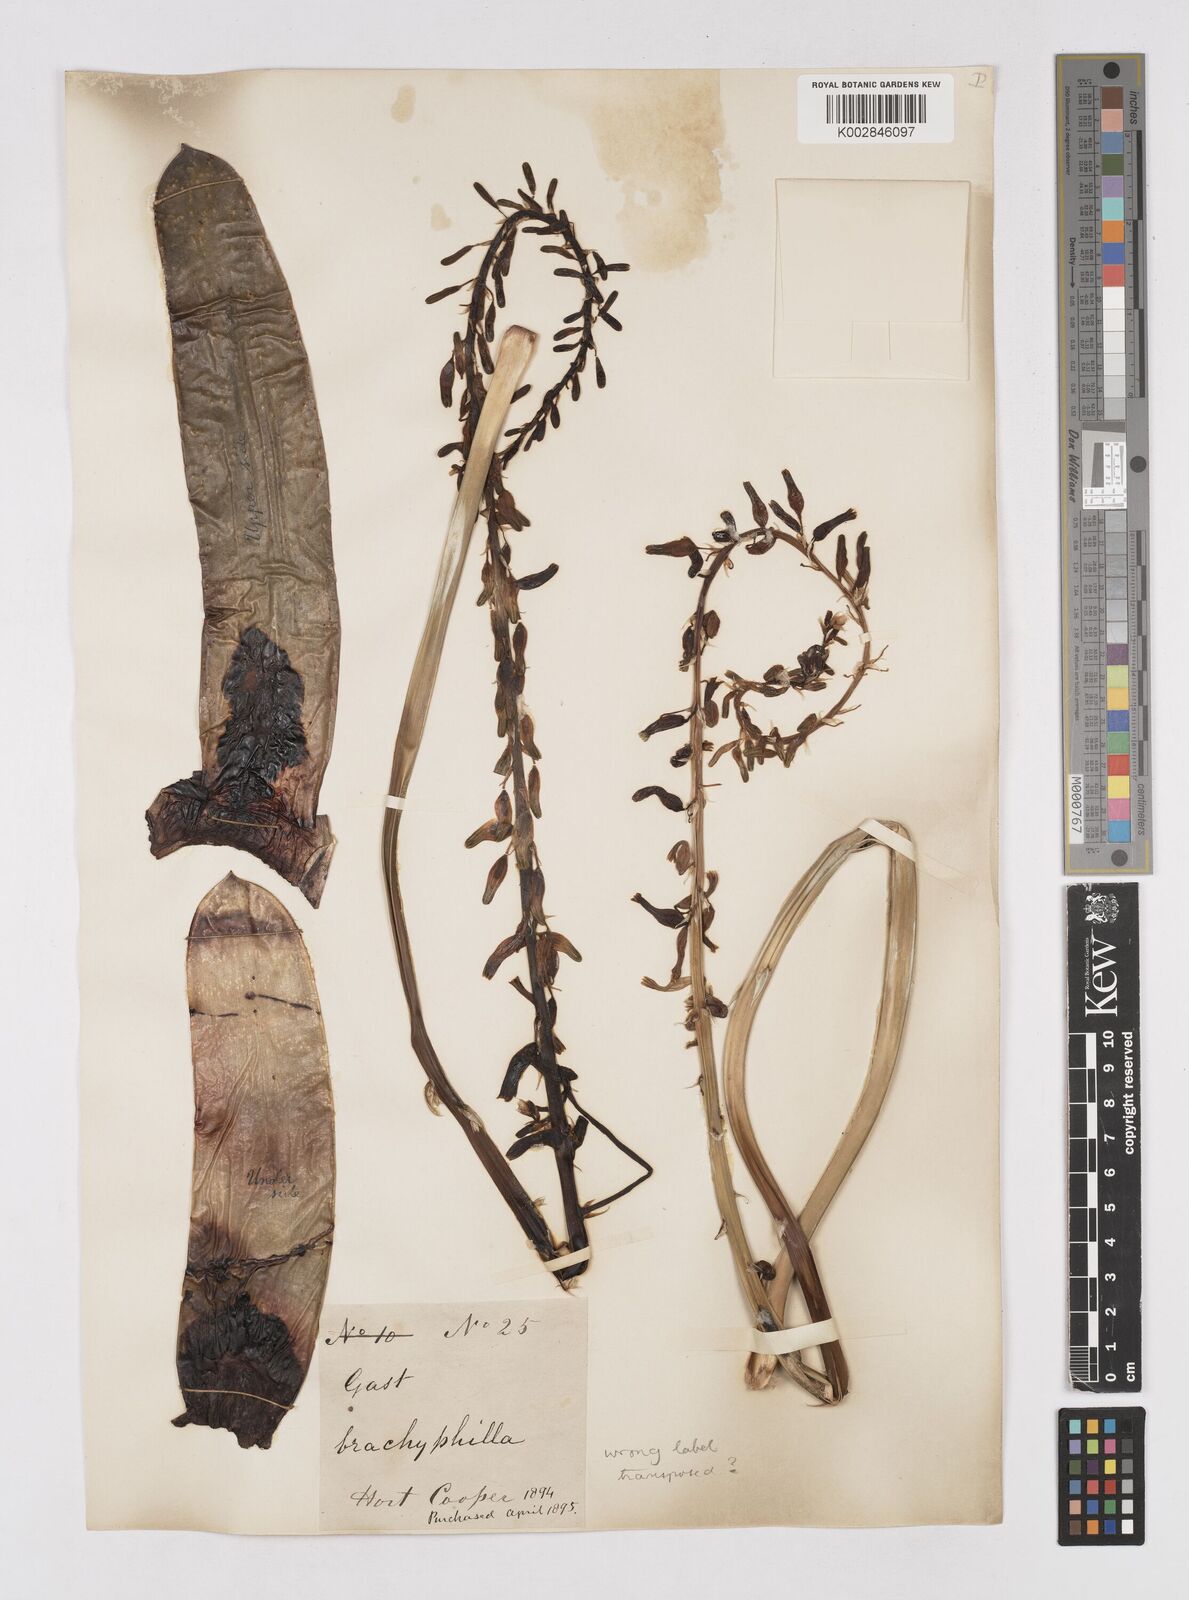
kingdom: Plantae
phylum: Tracheophyta
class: Liliopsida
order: Asparagales
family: Asphodelaceae
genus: Gasteria
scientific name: Gasteria
